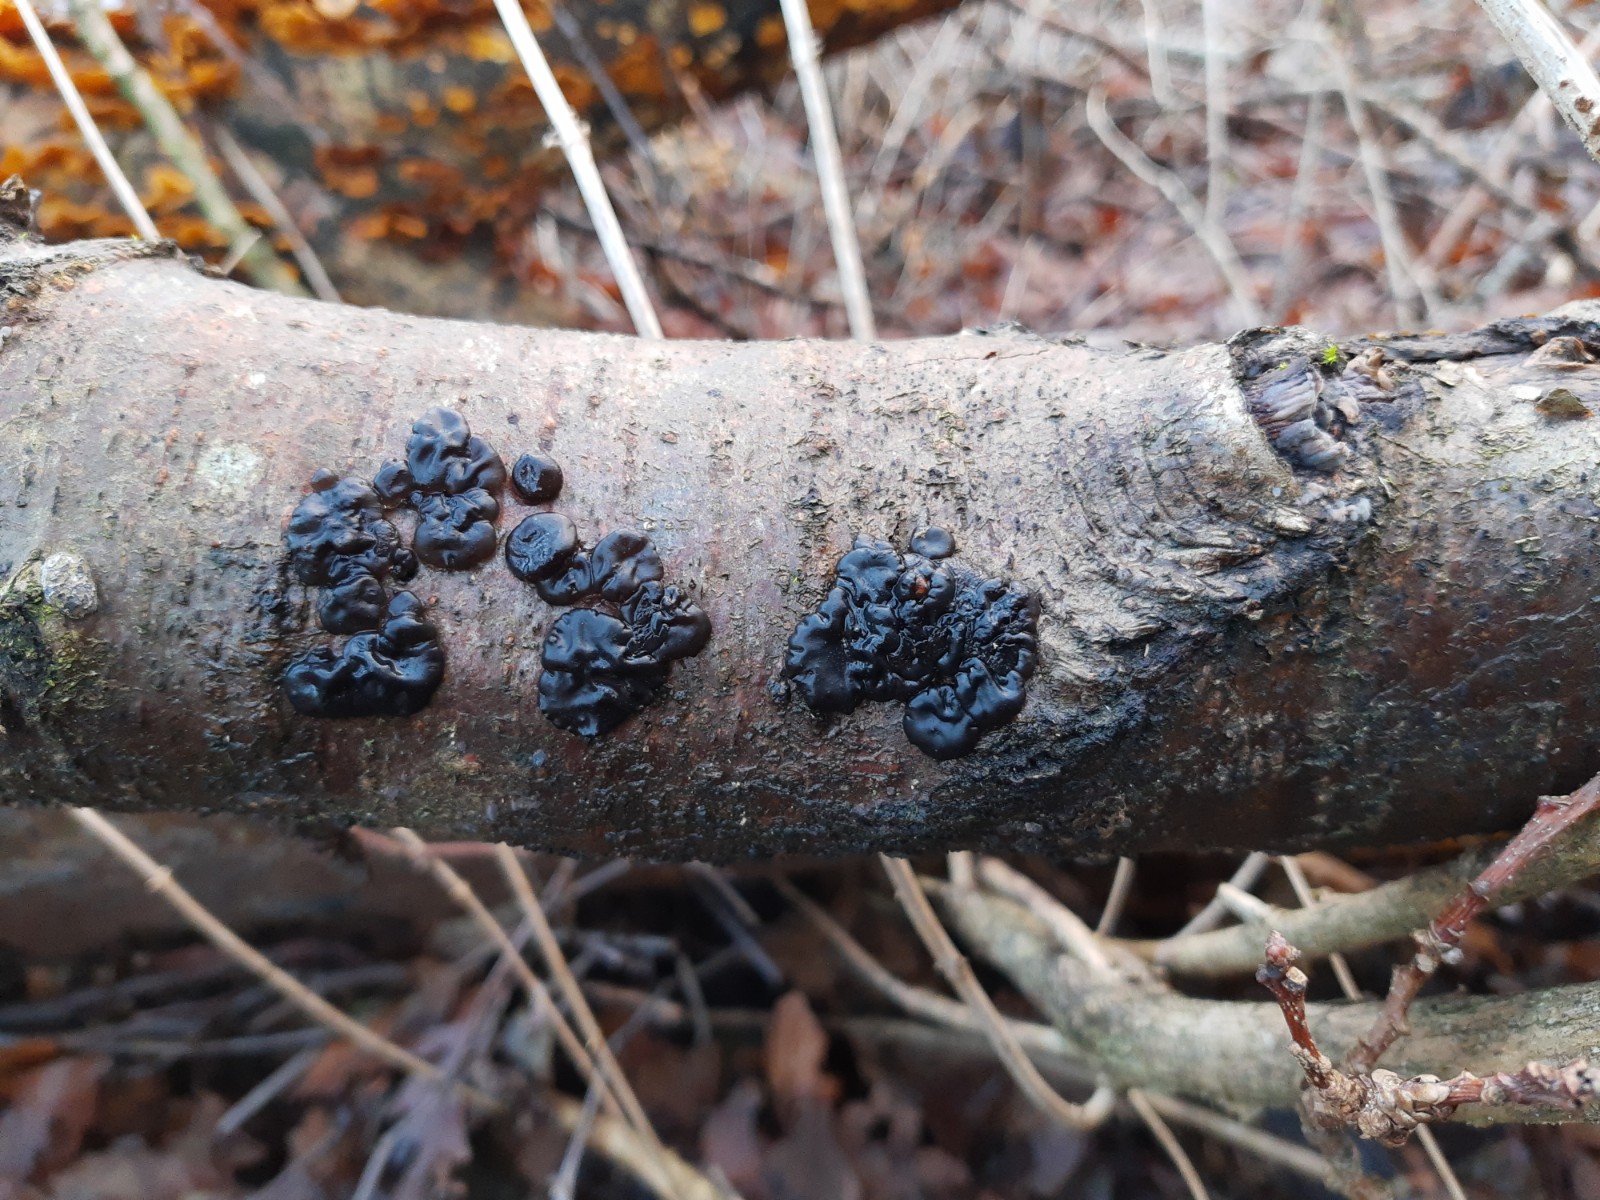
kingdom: Fungi
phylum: Basidiomycota
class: Agaricomycetes
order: Auriculariales
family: Auriculariaceae
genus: Exidia
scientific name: Exidia nigricans
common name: almindelig bævretop
